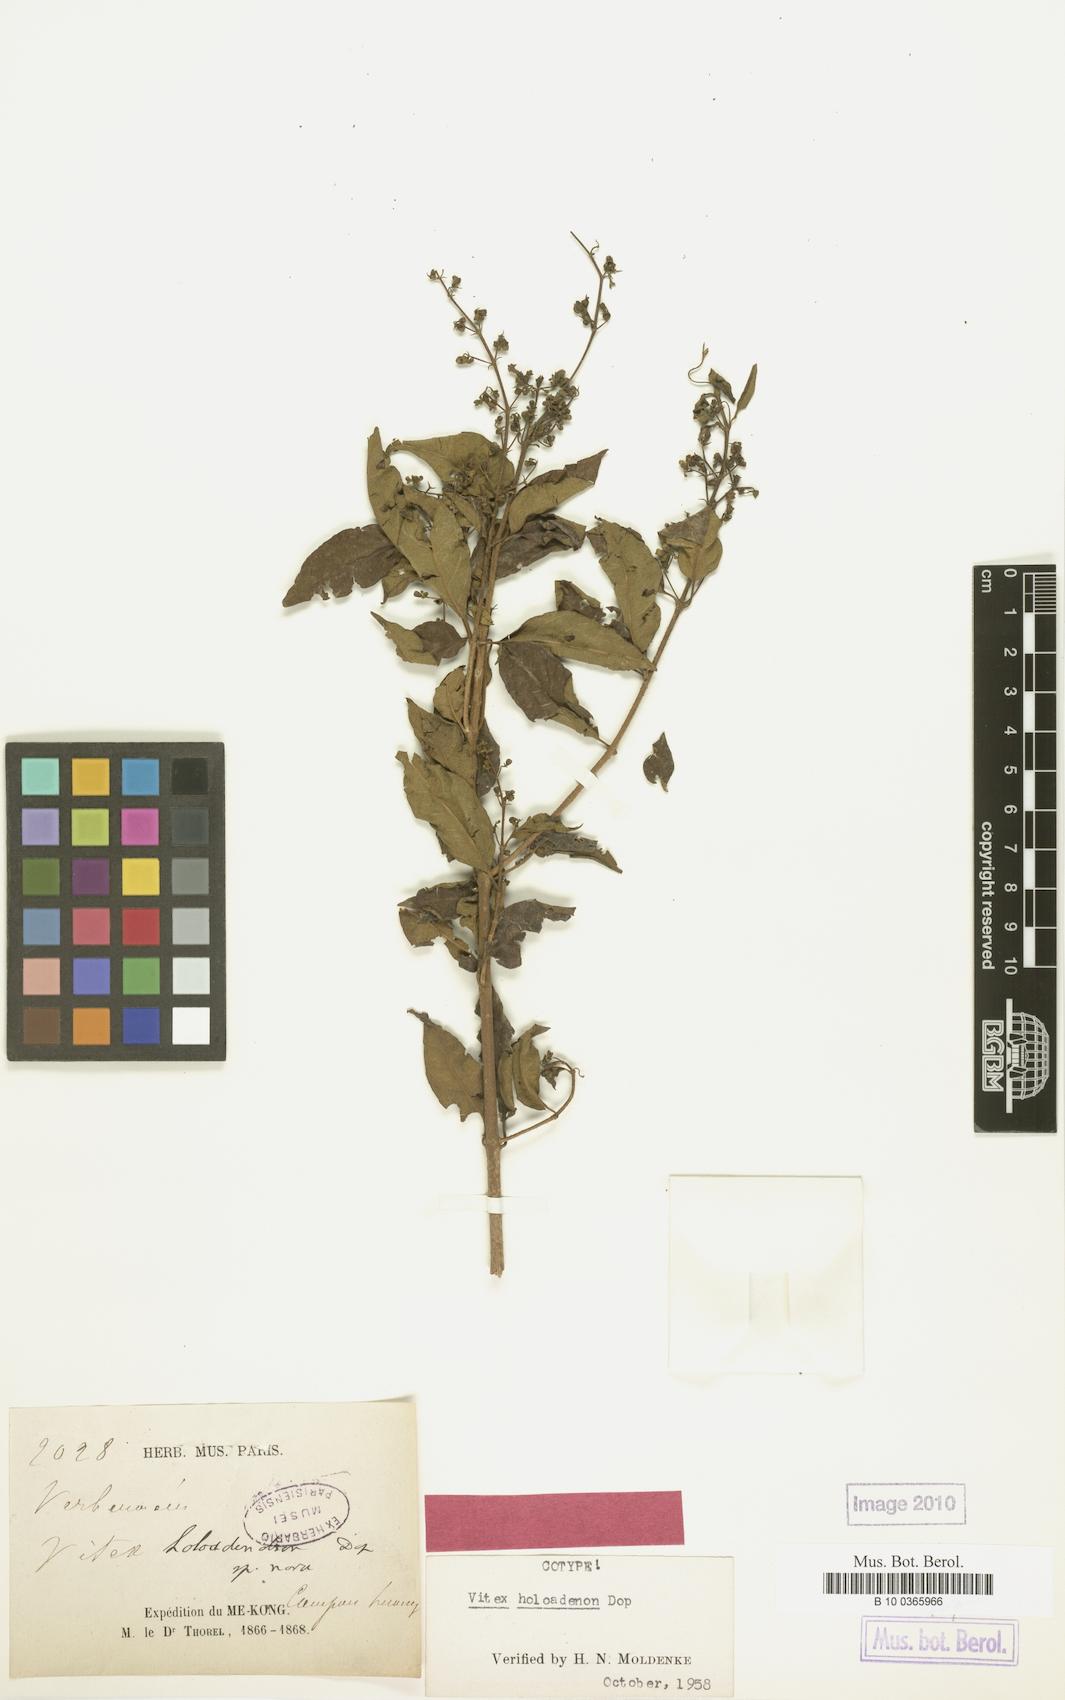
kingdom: Plantae
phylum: Tracheophyta
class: Magnoliopsida
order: Lamiales
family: Lamiaceae
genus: Vitex
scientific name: Vitex holoadenon
